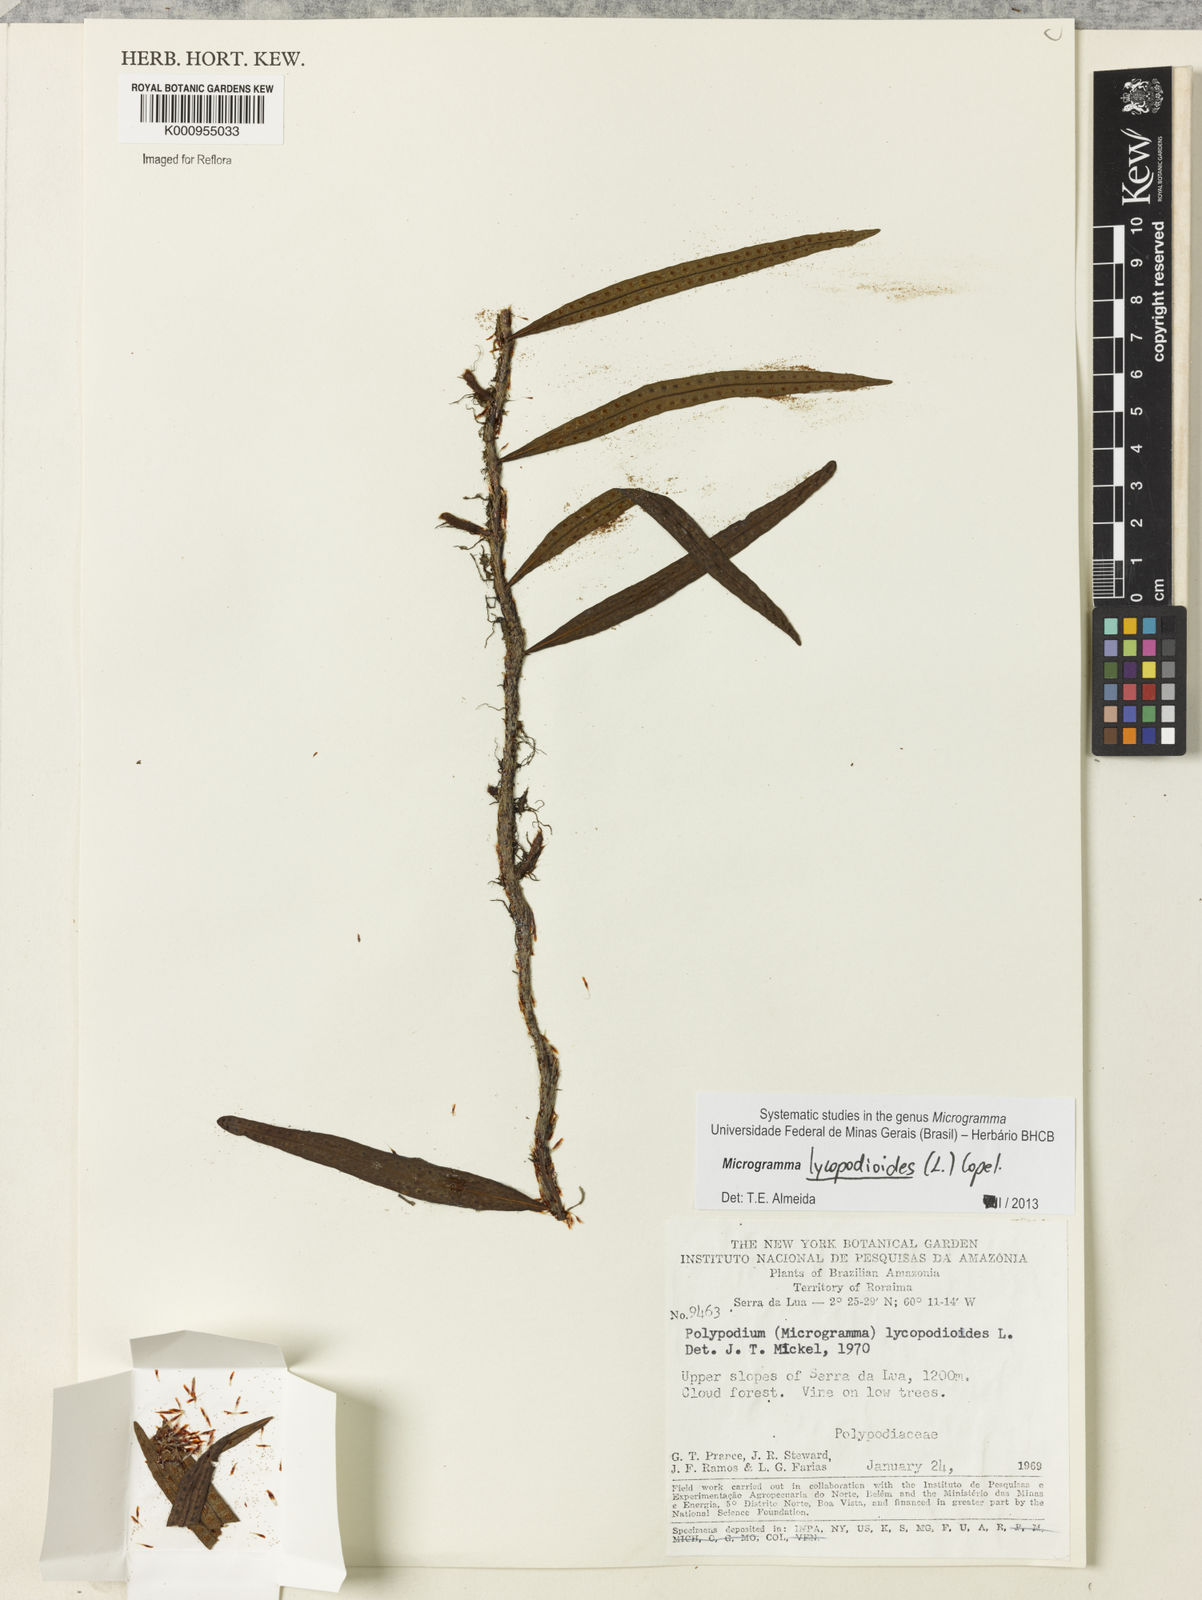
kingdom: Plantae
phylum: Tracheophyta
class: Polypodiopsida
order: Polypodiales
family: Polypodiaceae
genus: Microgramma
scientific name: Microgramma lycopodioides
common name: Bastard catclaw
